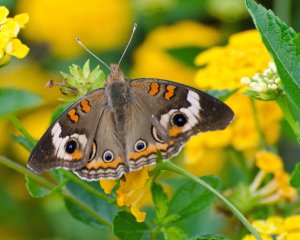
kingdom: Animalia
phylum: Arthropoda
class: Insecta
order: Lepidoptera
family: Nymphalidae
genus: Junonia
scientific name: Junonia coenia
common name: Common Buckeye
